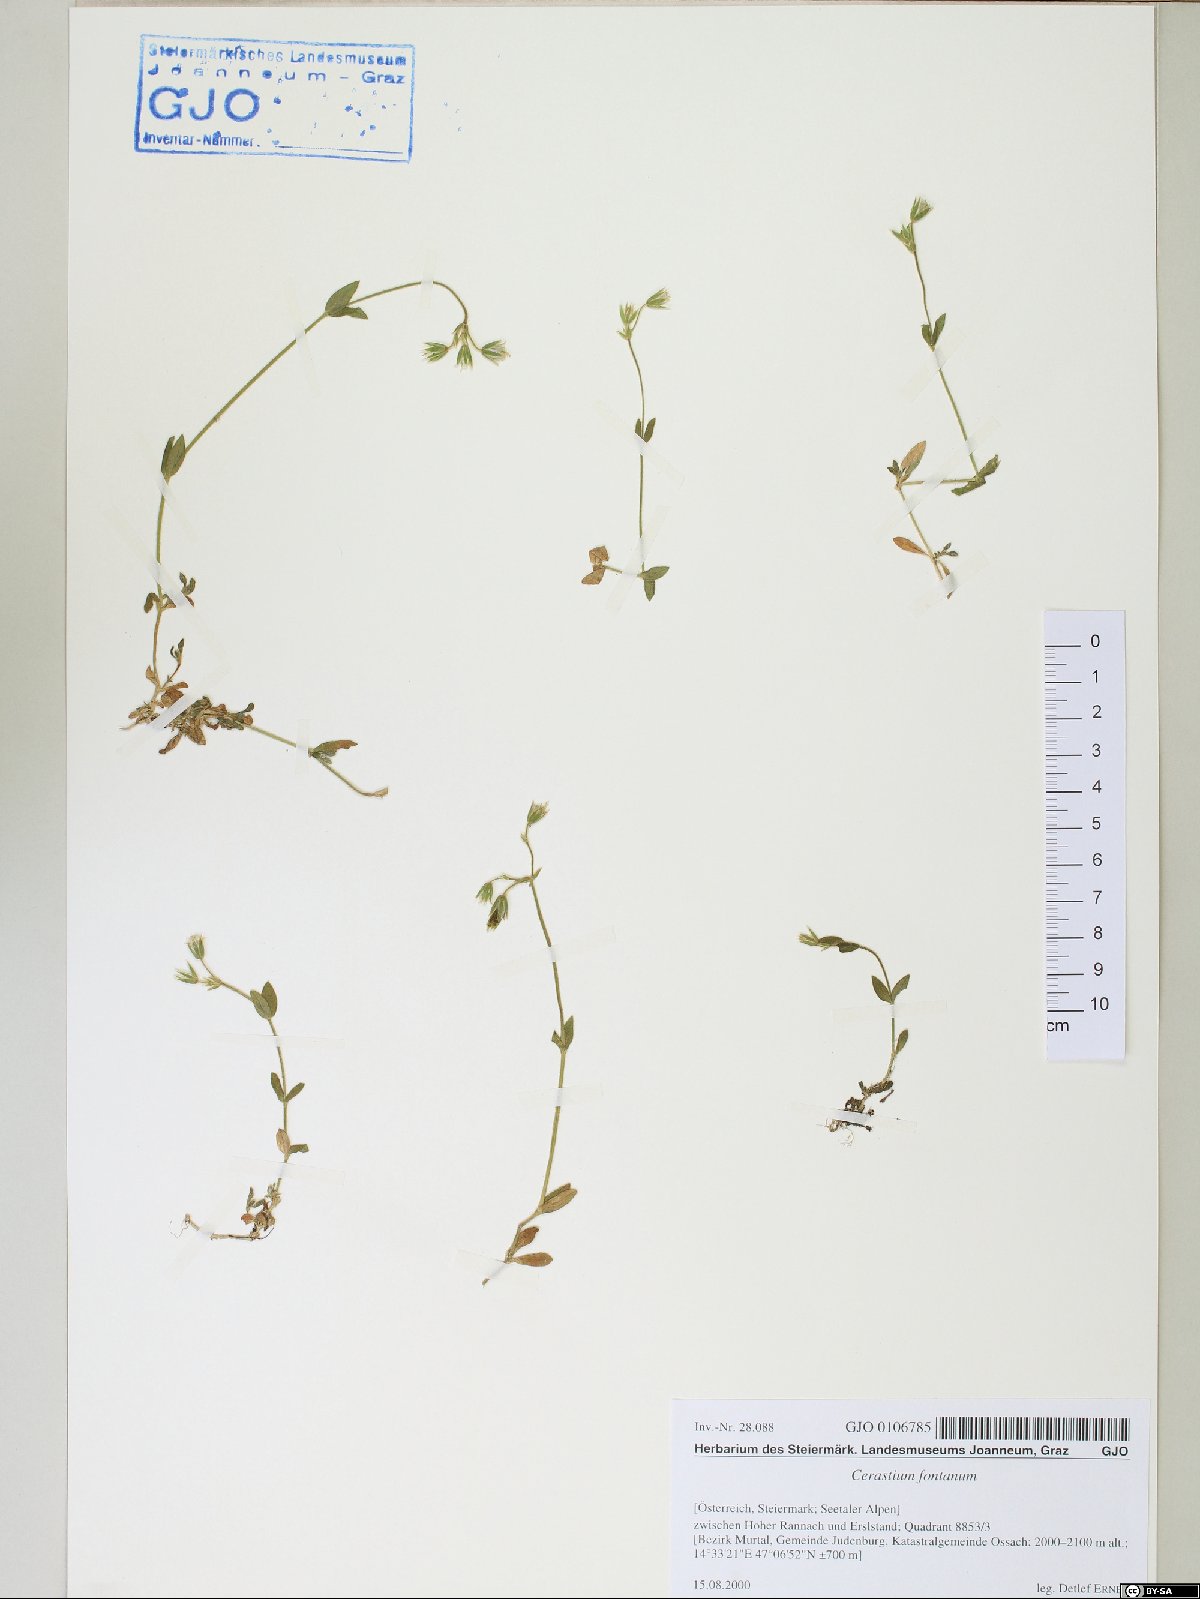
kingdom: Plantae
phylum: Tracheophyta
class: Magnoliopsida
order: Caryophyllales
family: Caryophyllaceae
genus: Cerastium
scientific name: Cerastium fontanum
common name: Common mouse-ear
